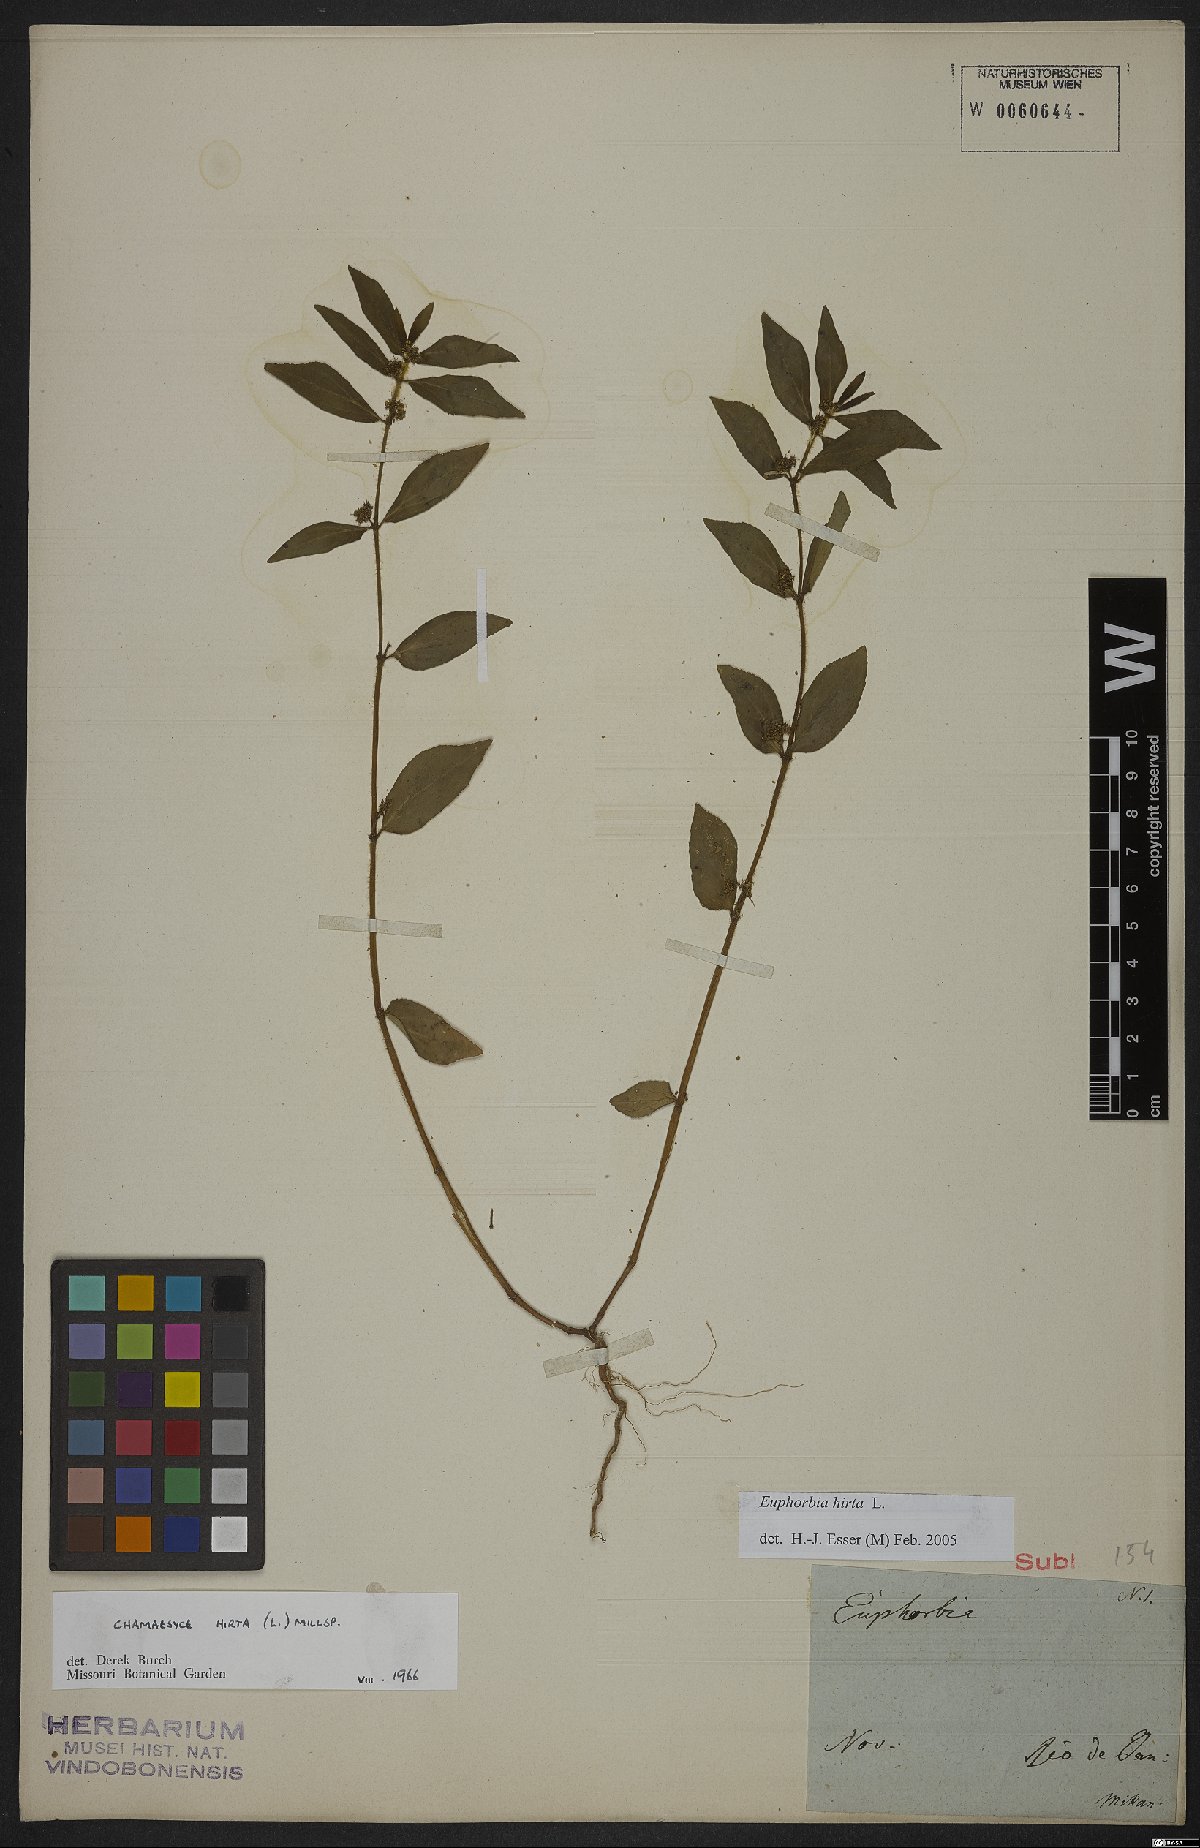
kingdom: Plantae
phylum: Tracheophyta
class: Magnoliopsida
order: Malpighiales
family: Euphorbiaceae
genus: Euphorbia
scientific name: Euphorbia hirta
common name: Pillpod sandmat
